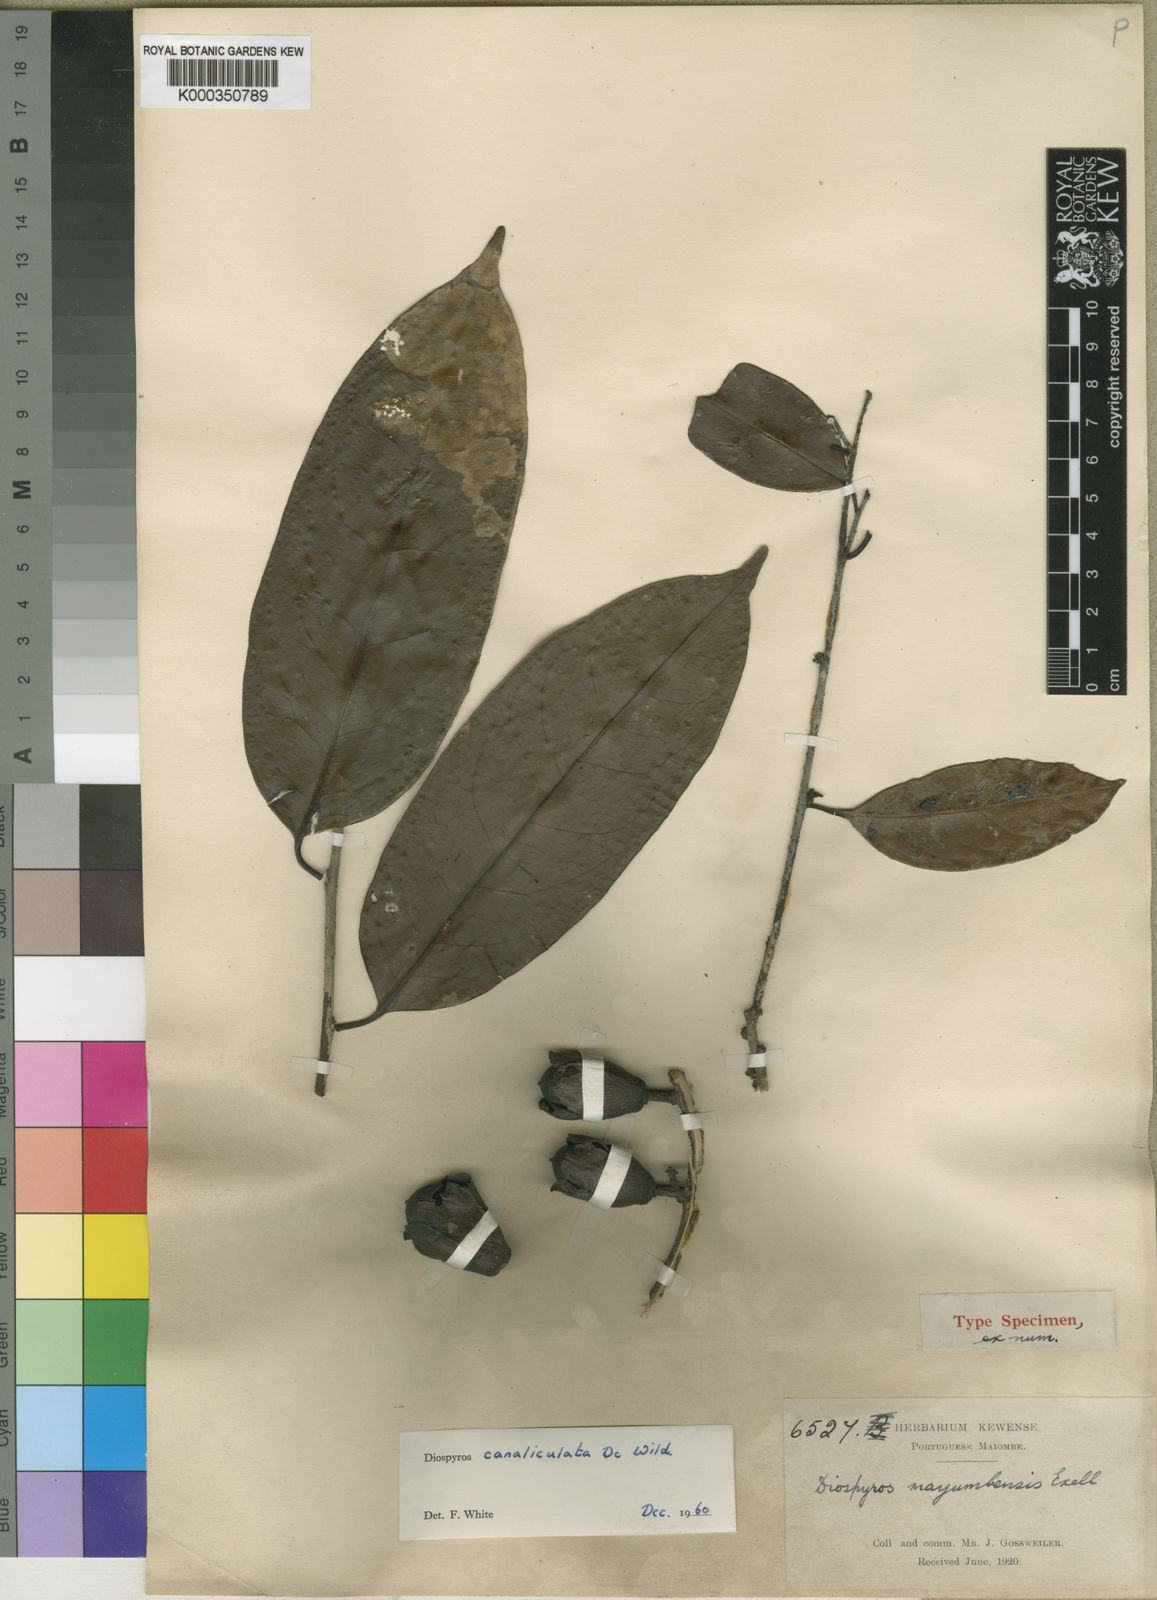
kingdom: Plantae
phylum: Tracheophyta
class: Magnoliopsida
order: Ericales
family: Ebenaceae
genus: Diospyros
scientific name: Diospyros canaliculata
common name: Flint bark
